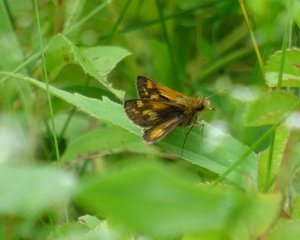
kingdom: Animalia
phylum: Arthropoda
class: Insecta
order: Lepidoptera
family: Hesperiidae
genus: Polites
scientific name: Polites coras
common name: Peck's Skipper
